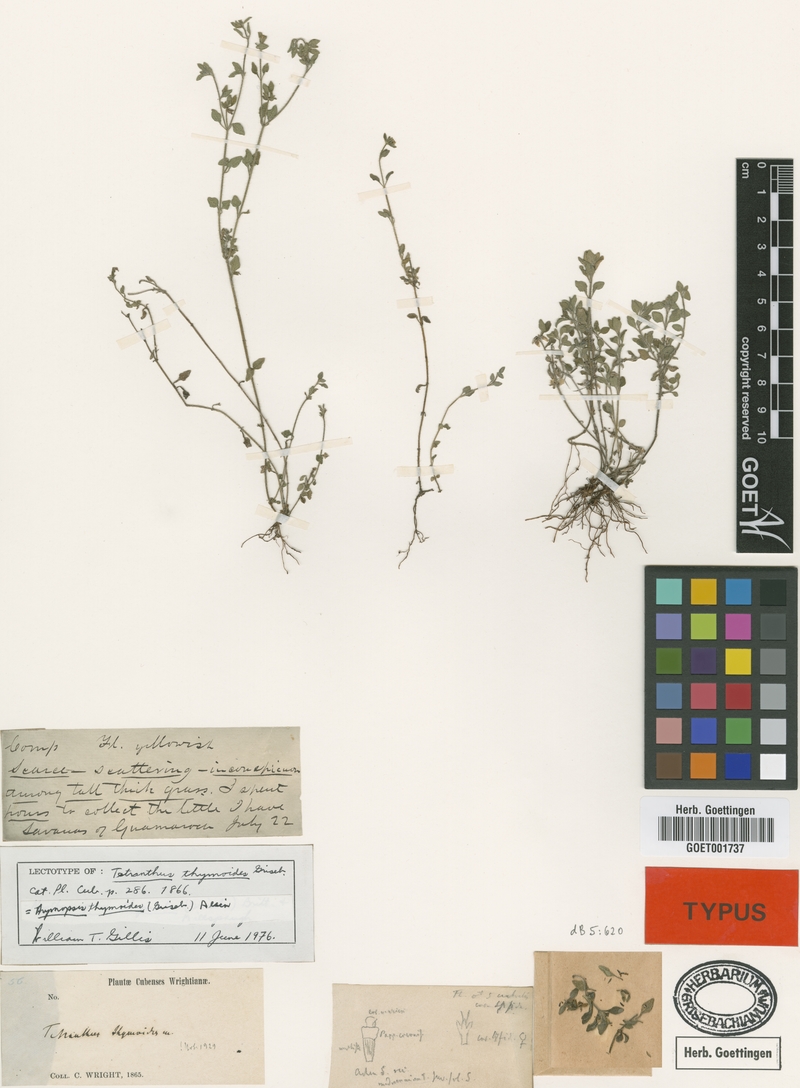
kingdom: Fungi
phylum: Ascomycota
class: Sordariomycetes
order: Hypocreales
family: Stachybotryaceae
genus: Hymenopsis
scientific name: Hymenopsis
